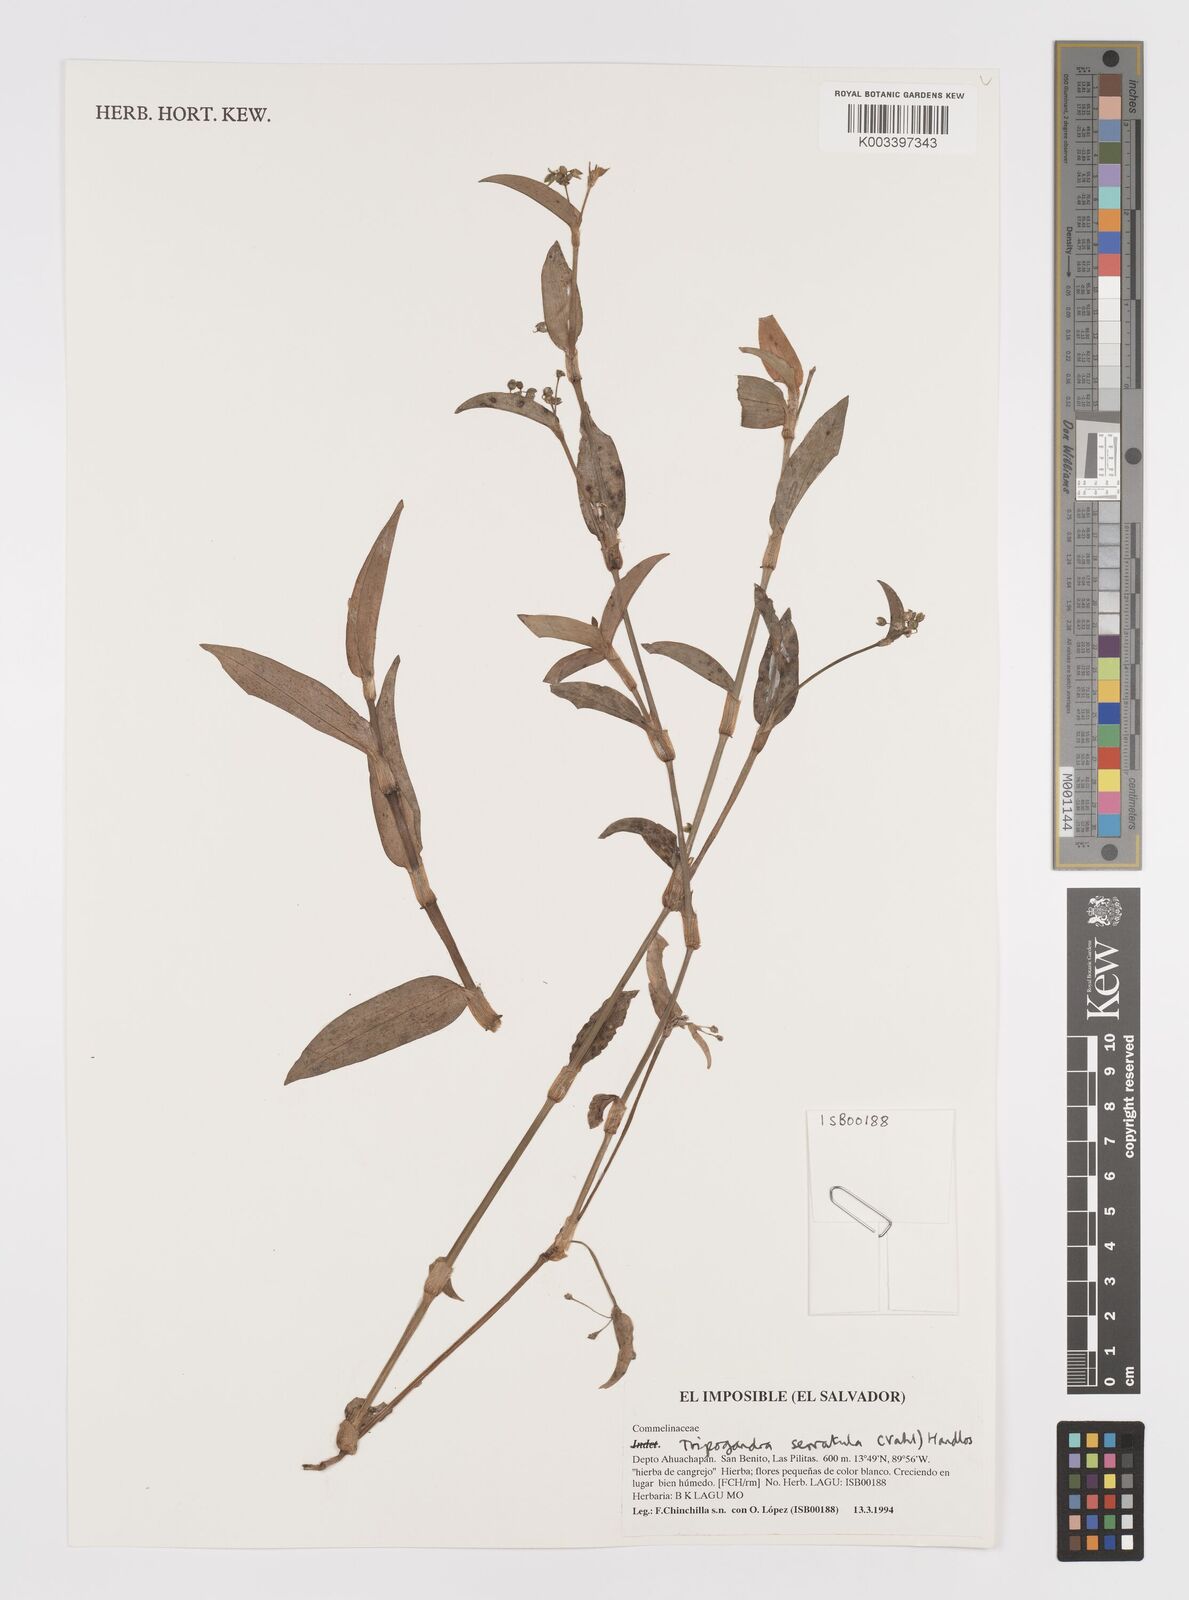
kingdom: Plantae
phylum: Tracheophyta
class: Liliopsida
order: Commelinales
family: Commelinaceae
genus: Callisia
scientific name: Callisia serrulata
